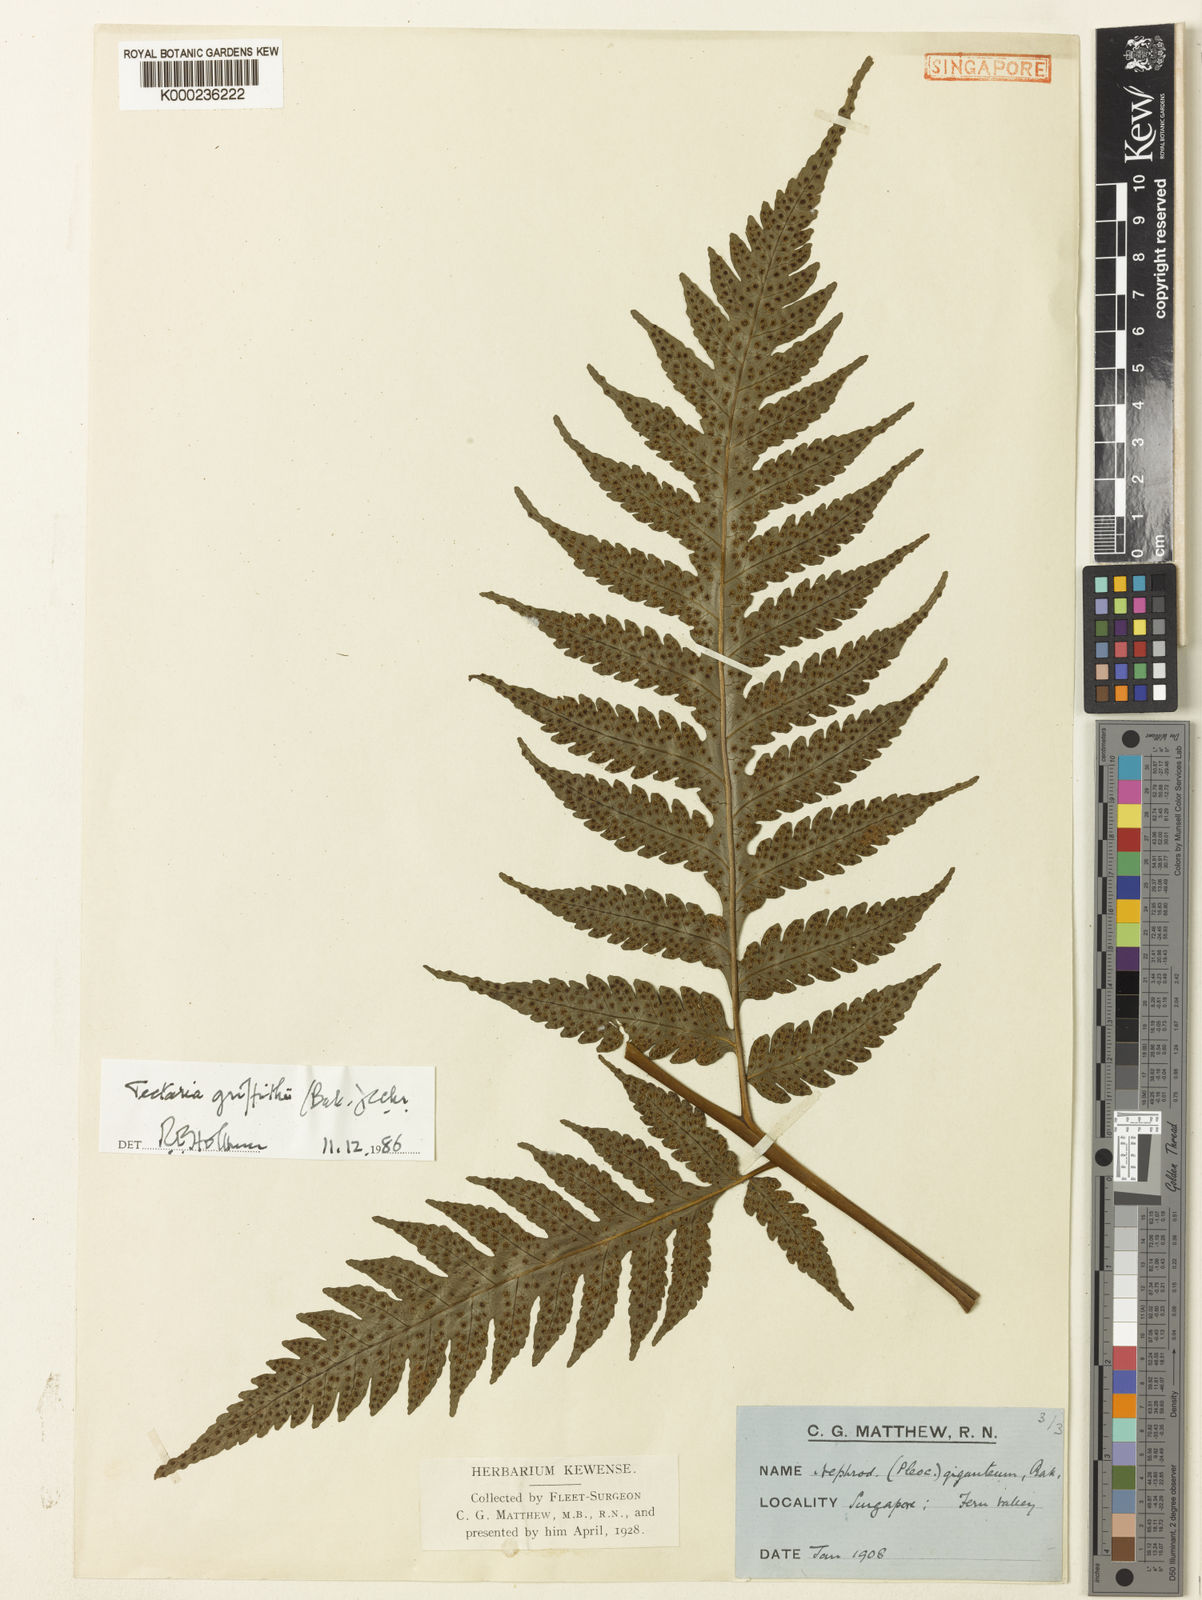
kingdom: Plantae
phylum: Tracheophyta
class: Polypodiopsida
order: Polypodiales
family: Tectariaceae
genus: Tectaria
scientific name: Tectaria multicaudata
